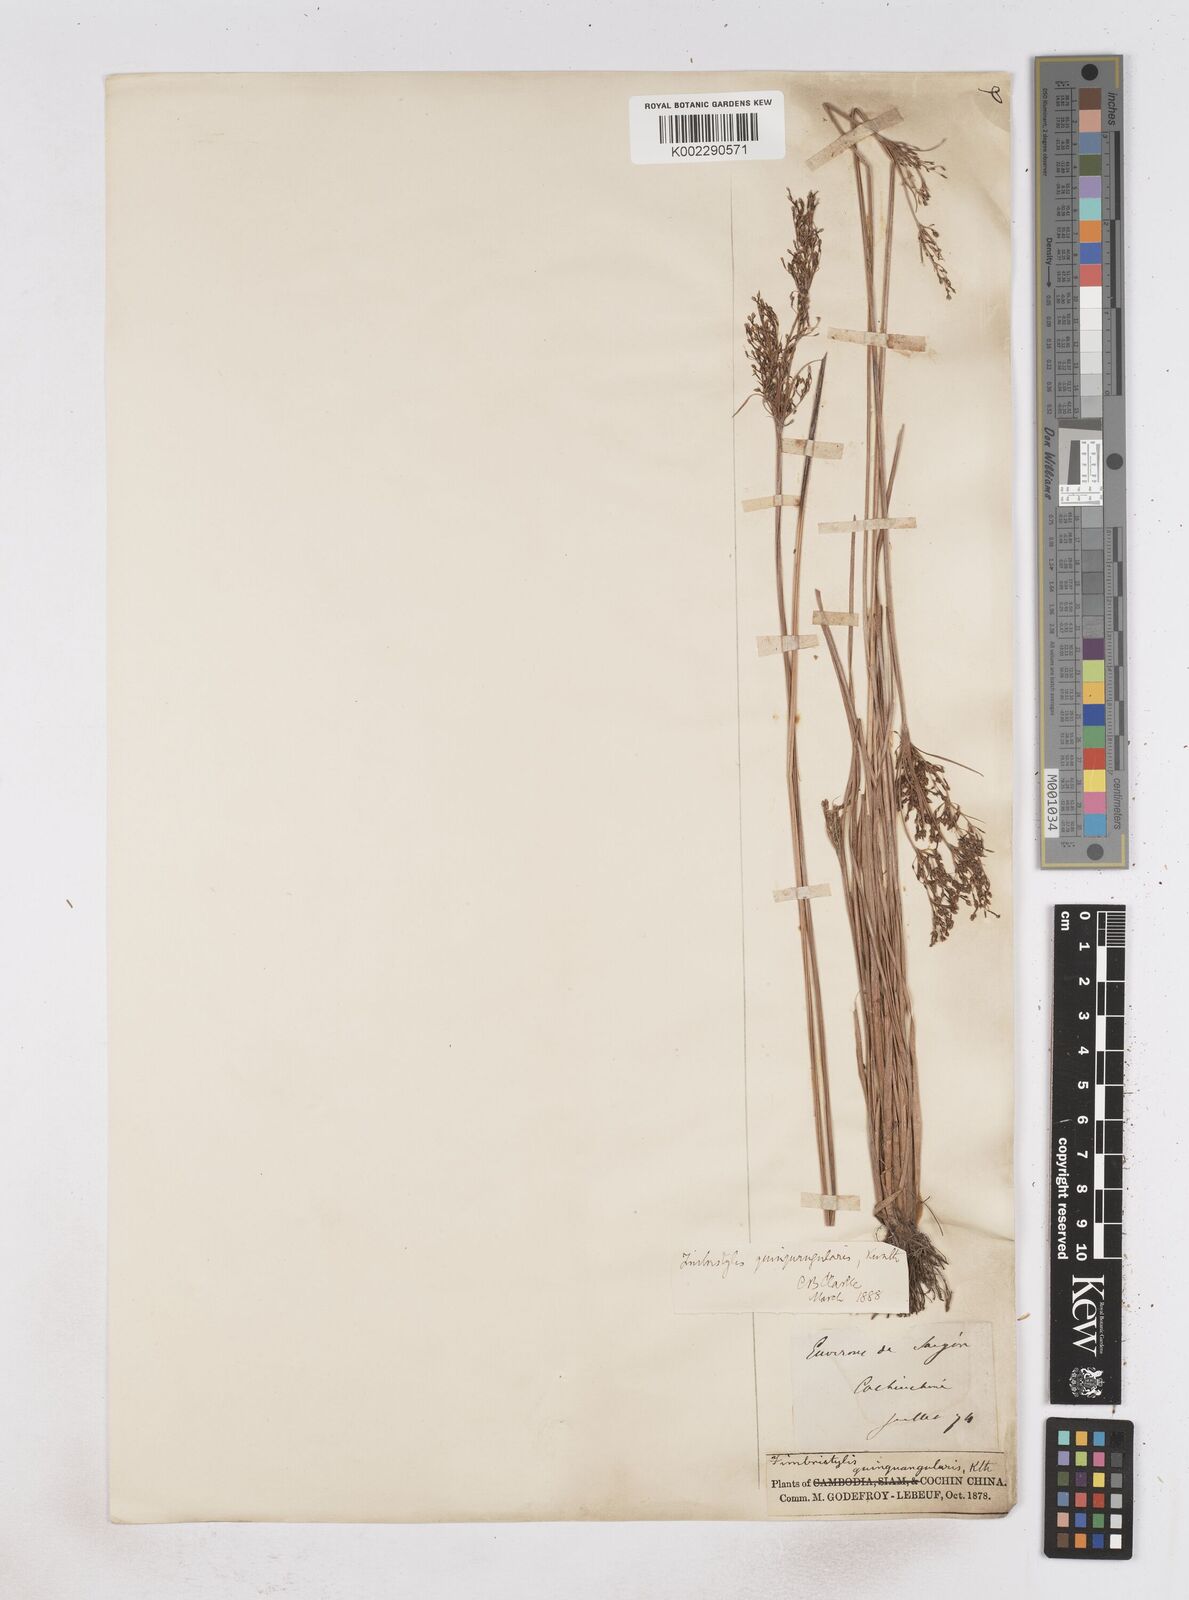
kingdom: Plantae
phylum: Tracheophyta
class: Liliopsida
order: Poales
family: Cyperaceae
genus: Fimbristylis
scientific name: Fimbristylis quinquangularis
